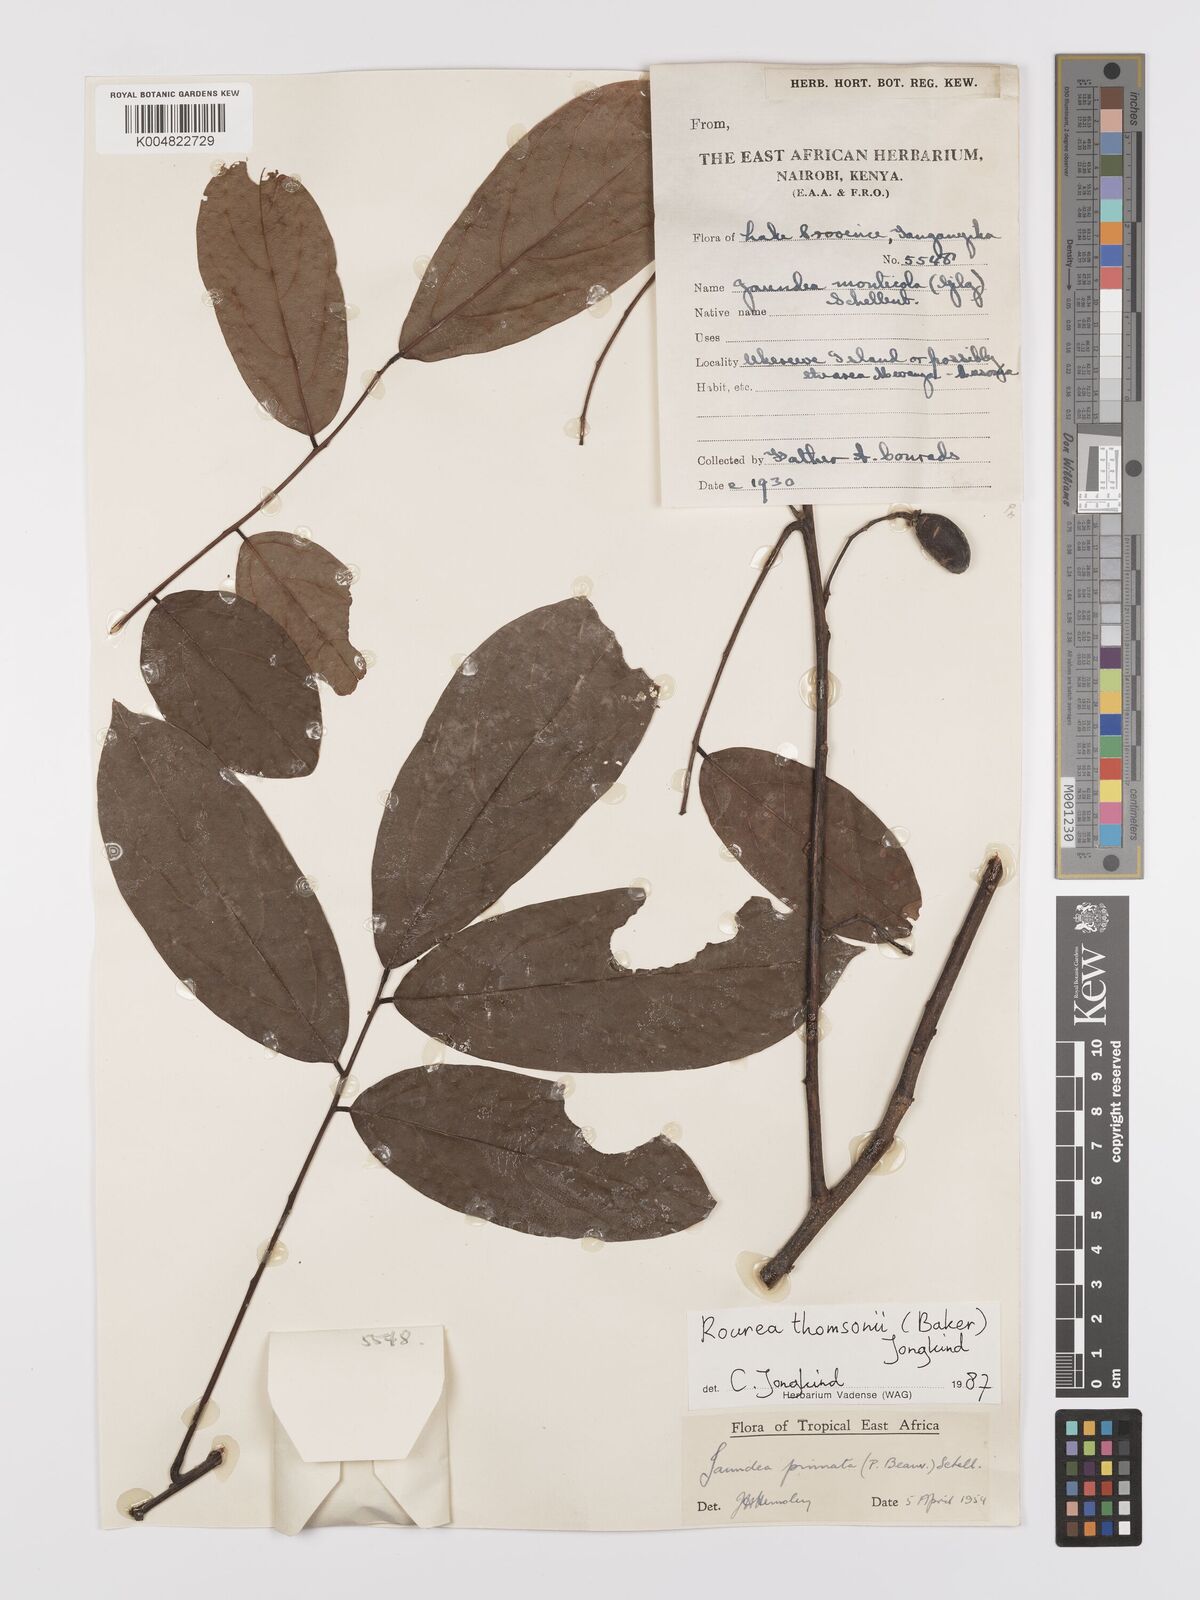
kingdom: Plantae
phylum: Tracheophyta
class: Magnoliopsida
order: Oxalidales
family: Connaraceae
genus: Rourea
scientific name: Rourea pinnata
